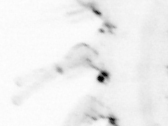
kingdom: Animalia
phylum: Chordata
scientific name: Chordata
